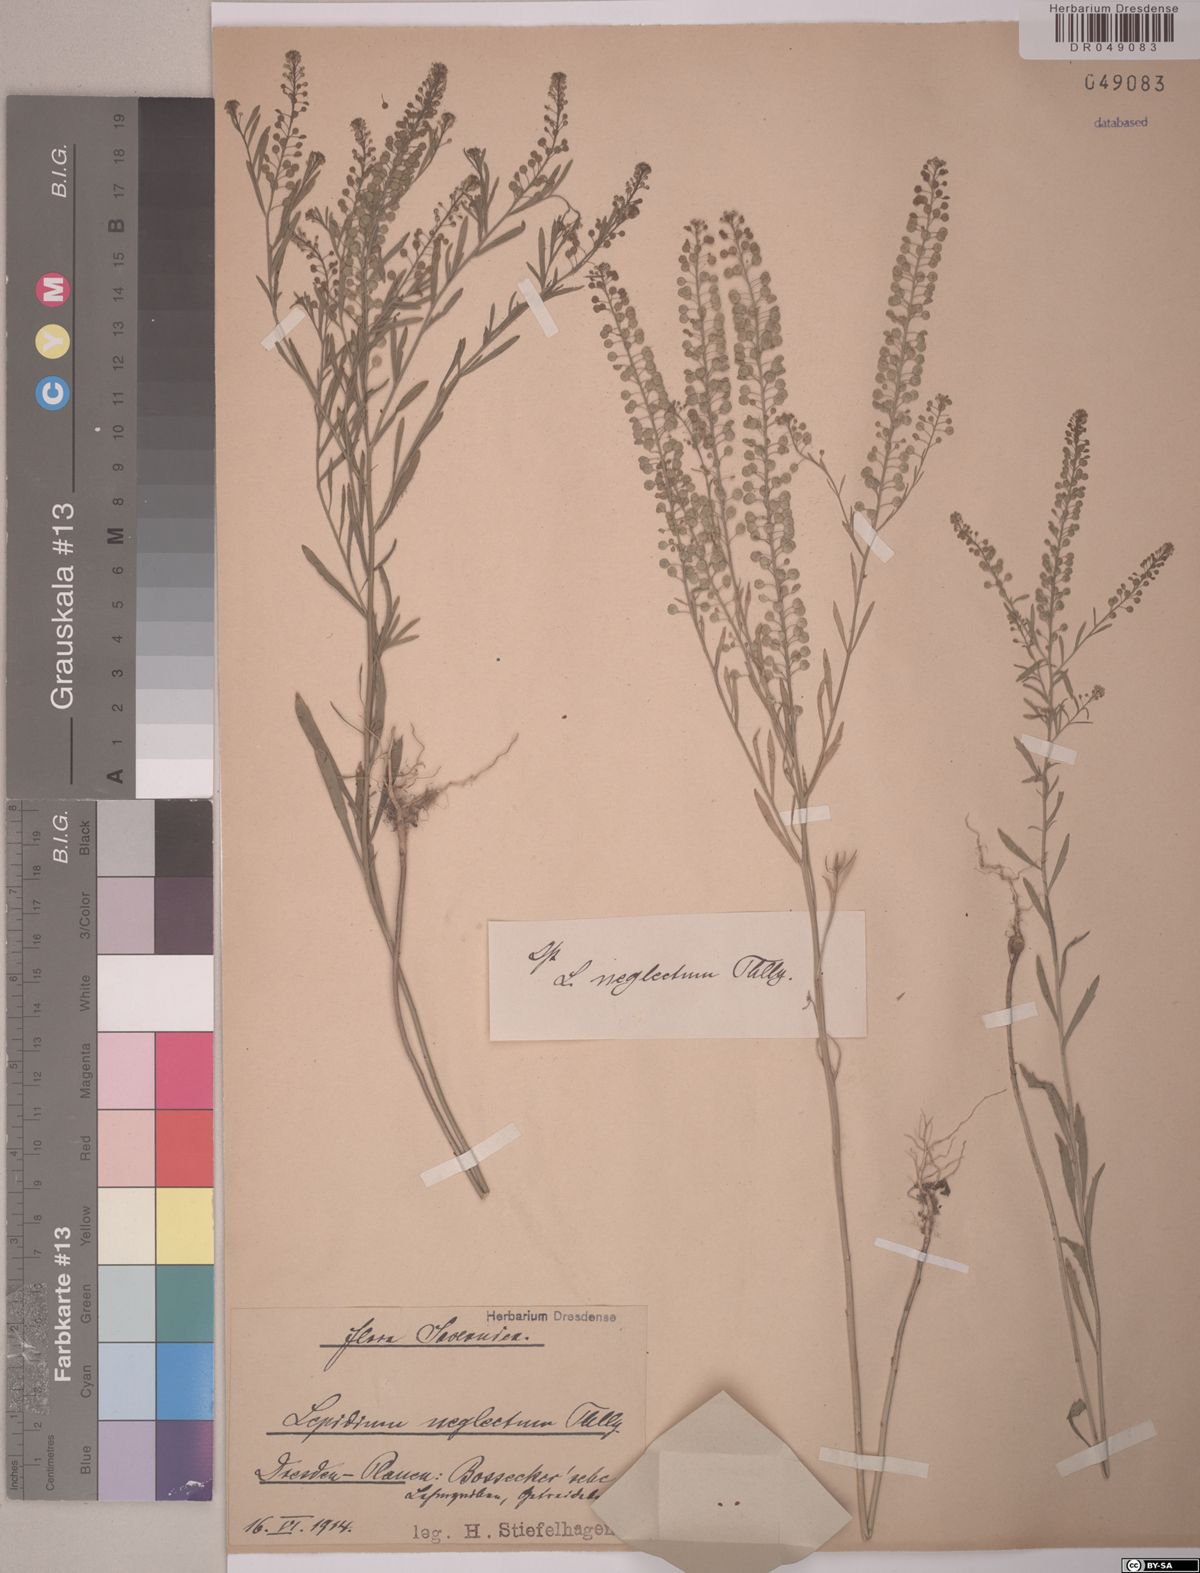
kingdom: Plantae
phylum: Tracheophyta
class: Magnoliopsida
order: Brassicales
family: Brassicaceae
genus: Lepidium
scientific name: Lepidium densiflorum
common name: Miner's pepperwort
